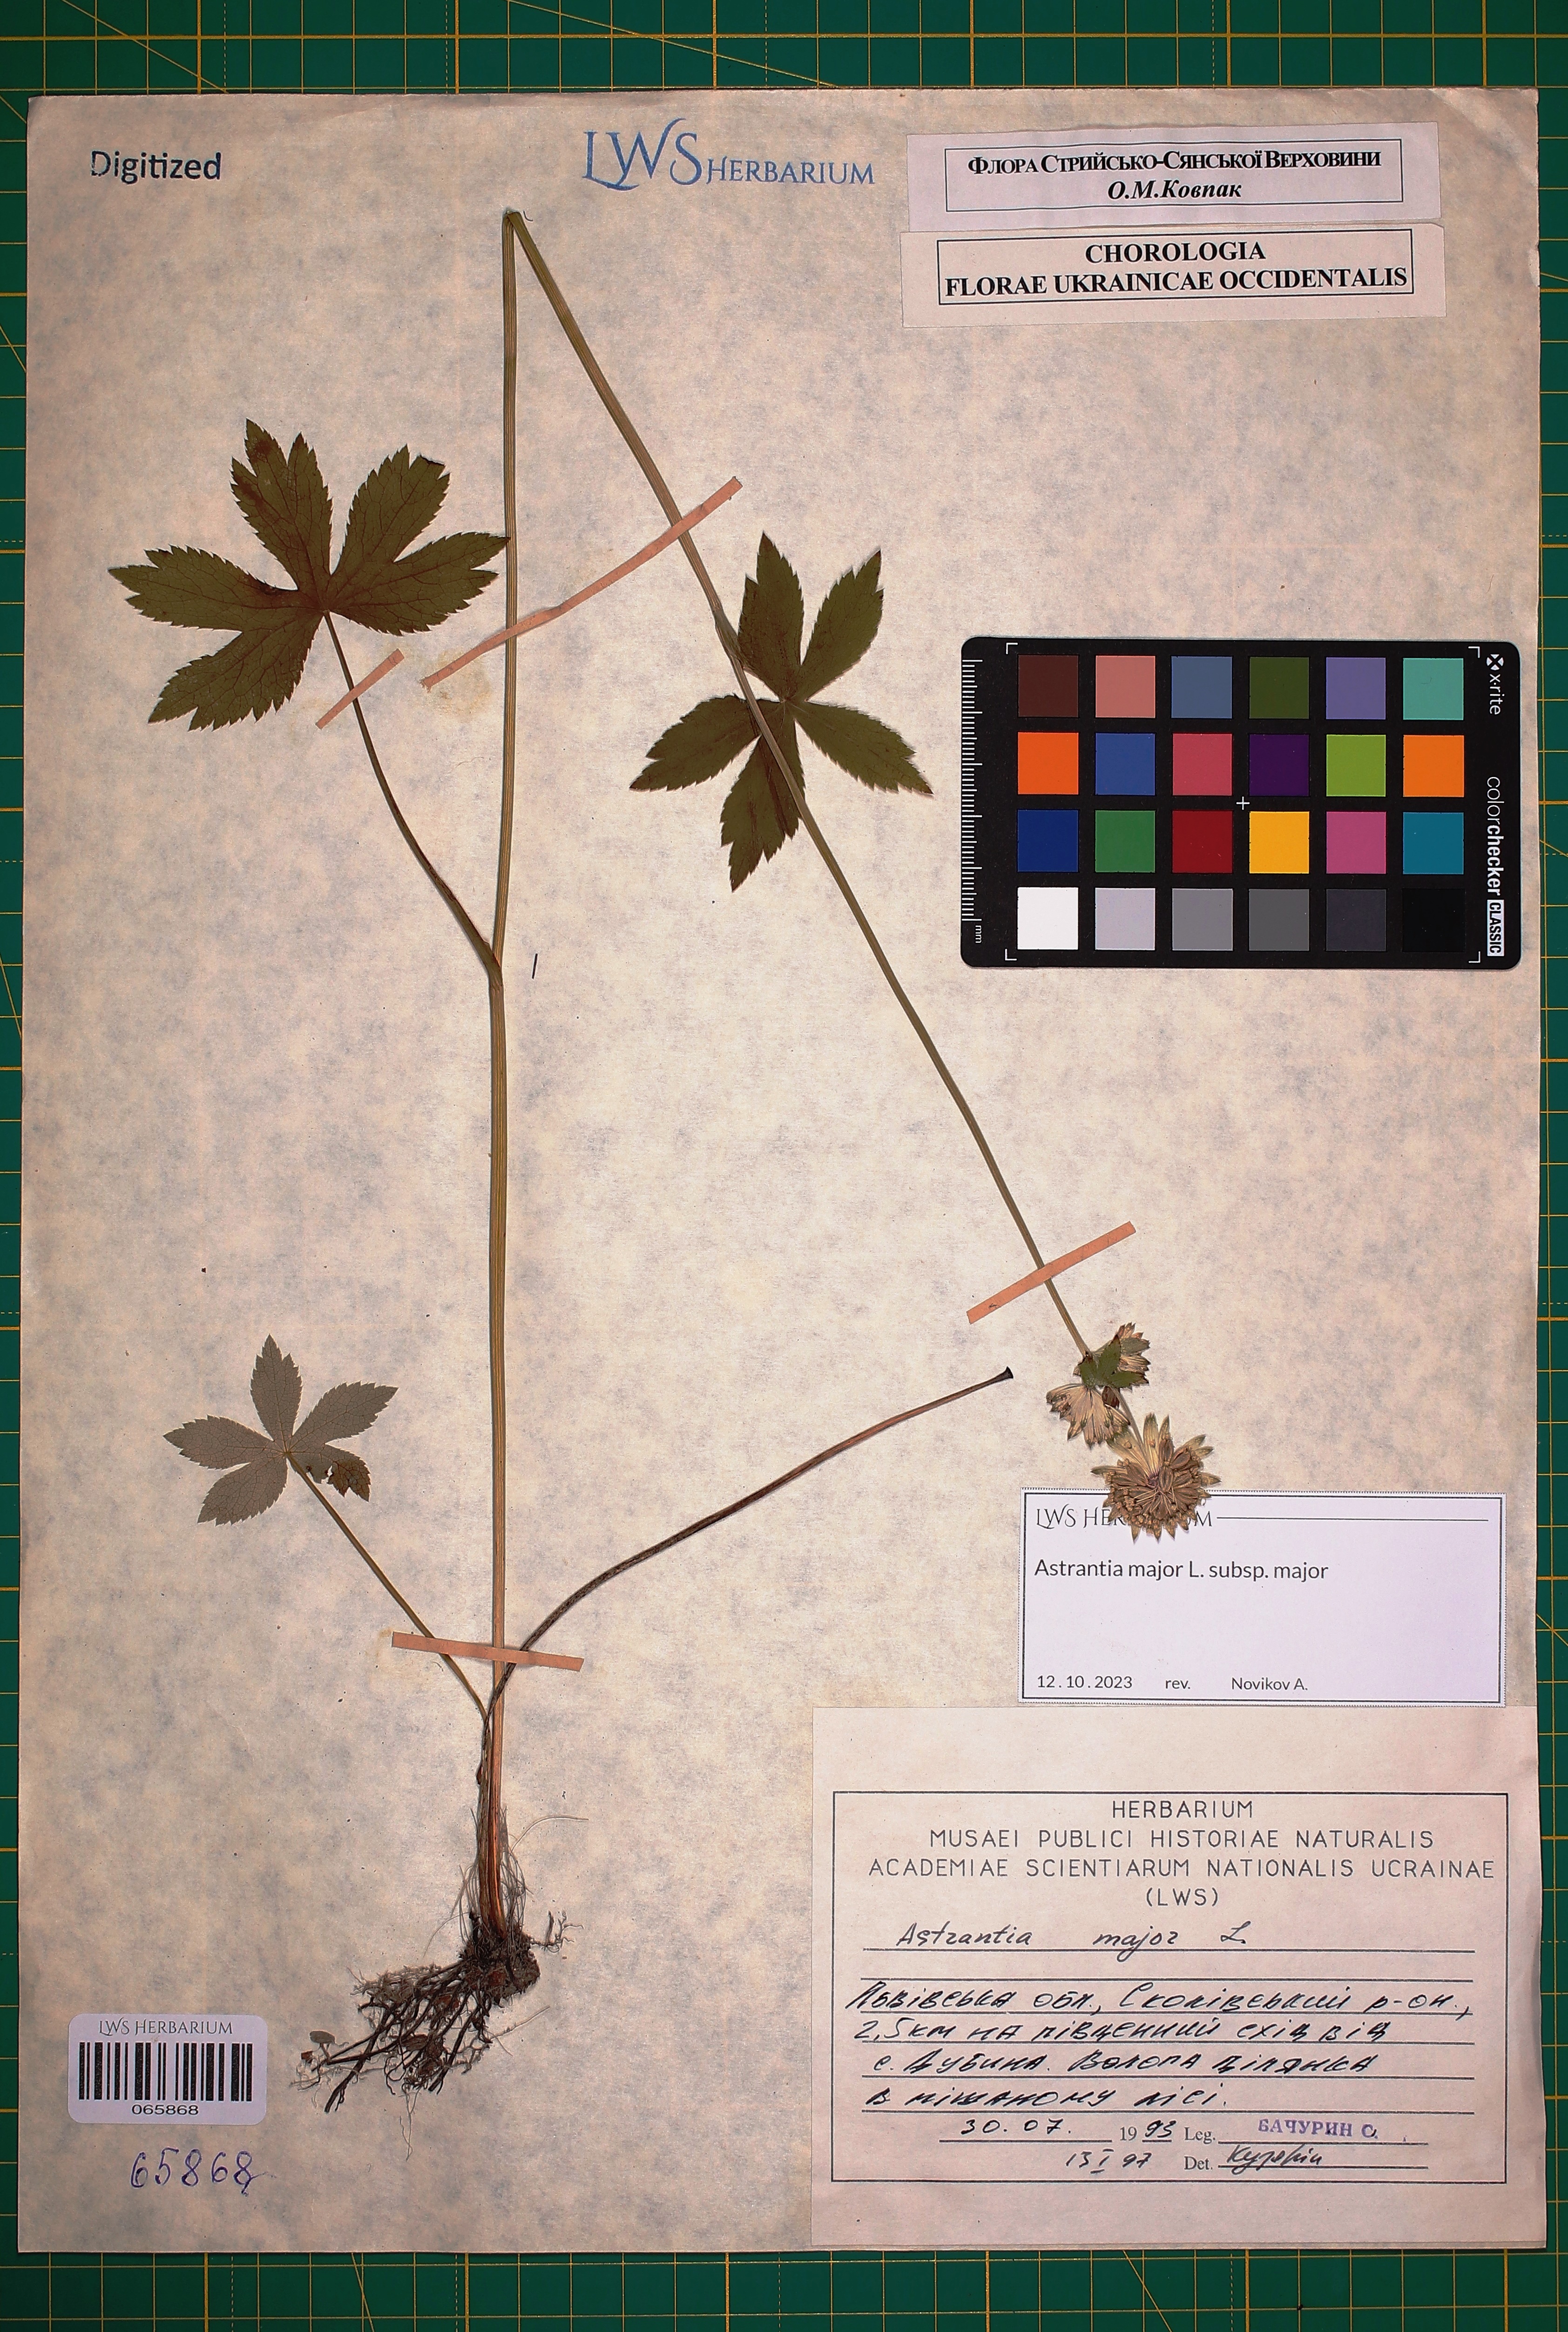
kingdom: Plantae
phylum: Tracheophyta
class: Magnoliopsida
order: Apiales
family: Apiaceae
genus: Astrantia
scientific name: Astrantia major
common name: Greater masterwort
